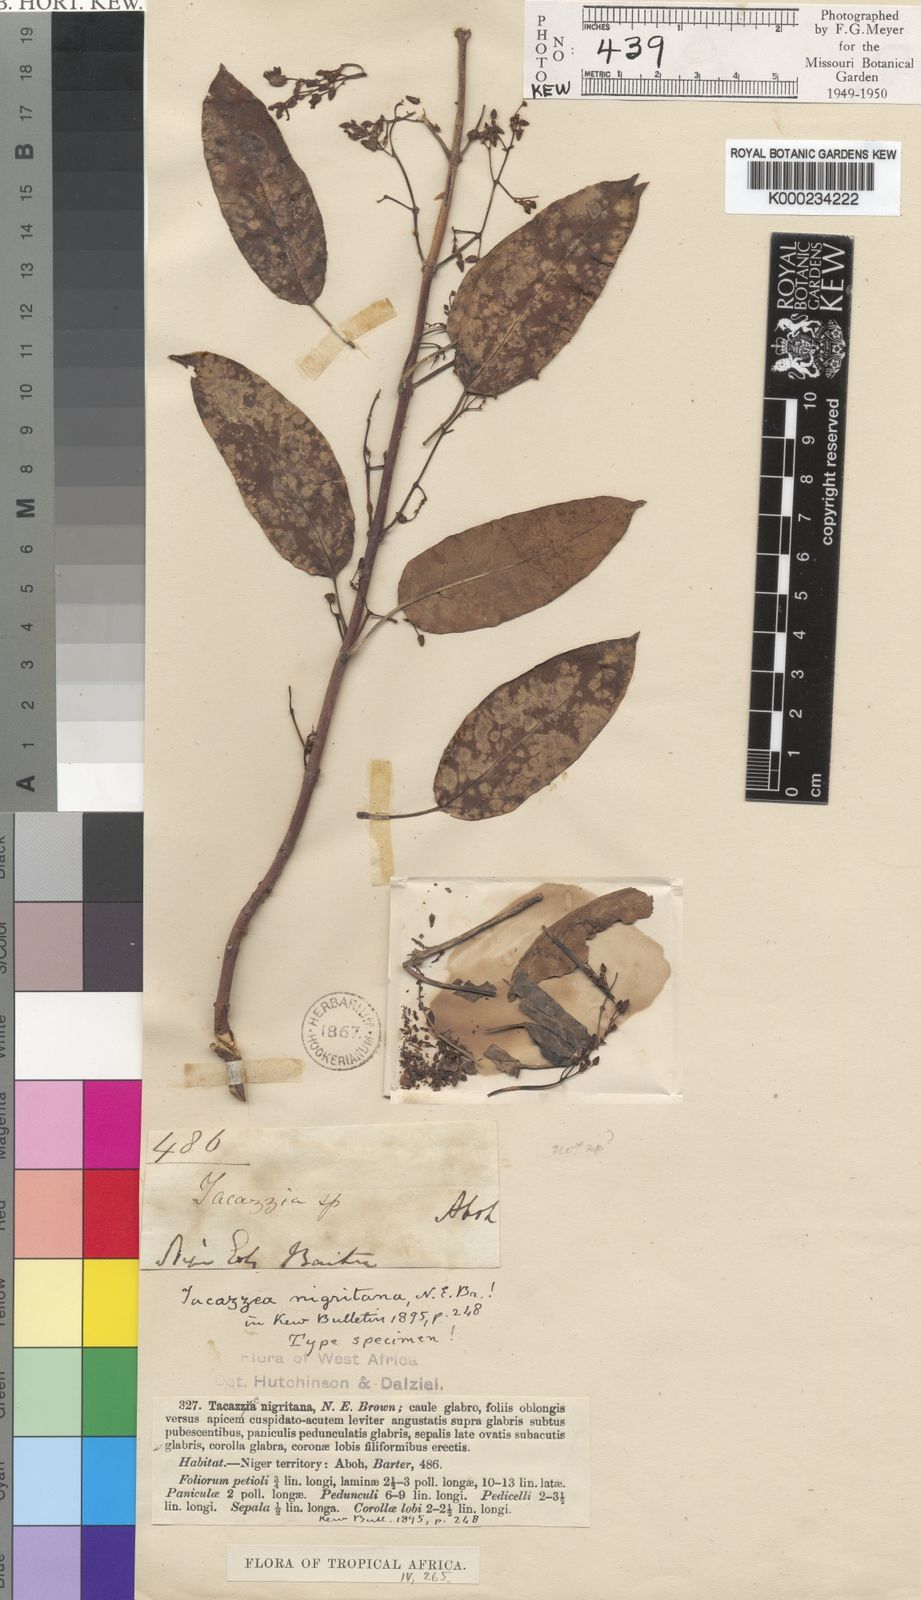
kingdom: Plantae
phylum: Tracheophyta
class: Magnoliopsida
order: Gentianales
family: Apocynaceae
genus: Tacazzea
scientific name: Tacazzea apiculata
